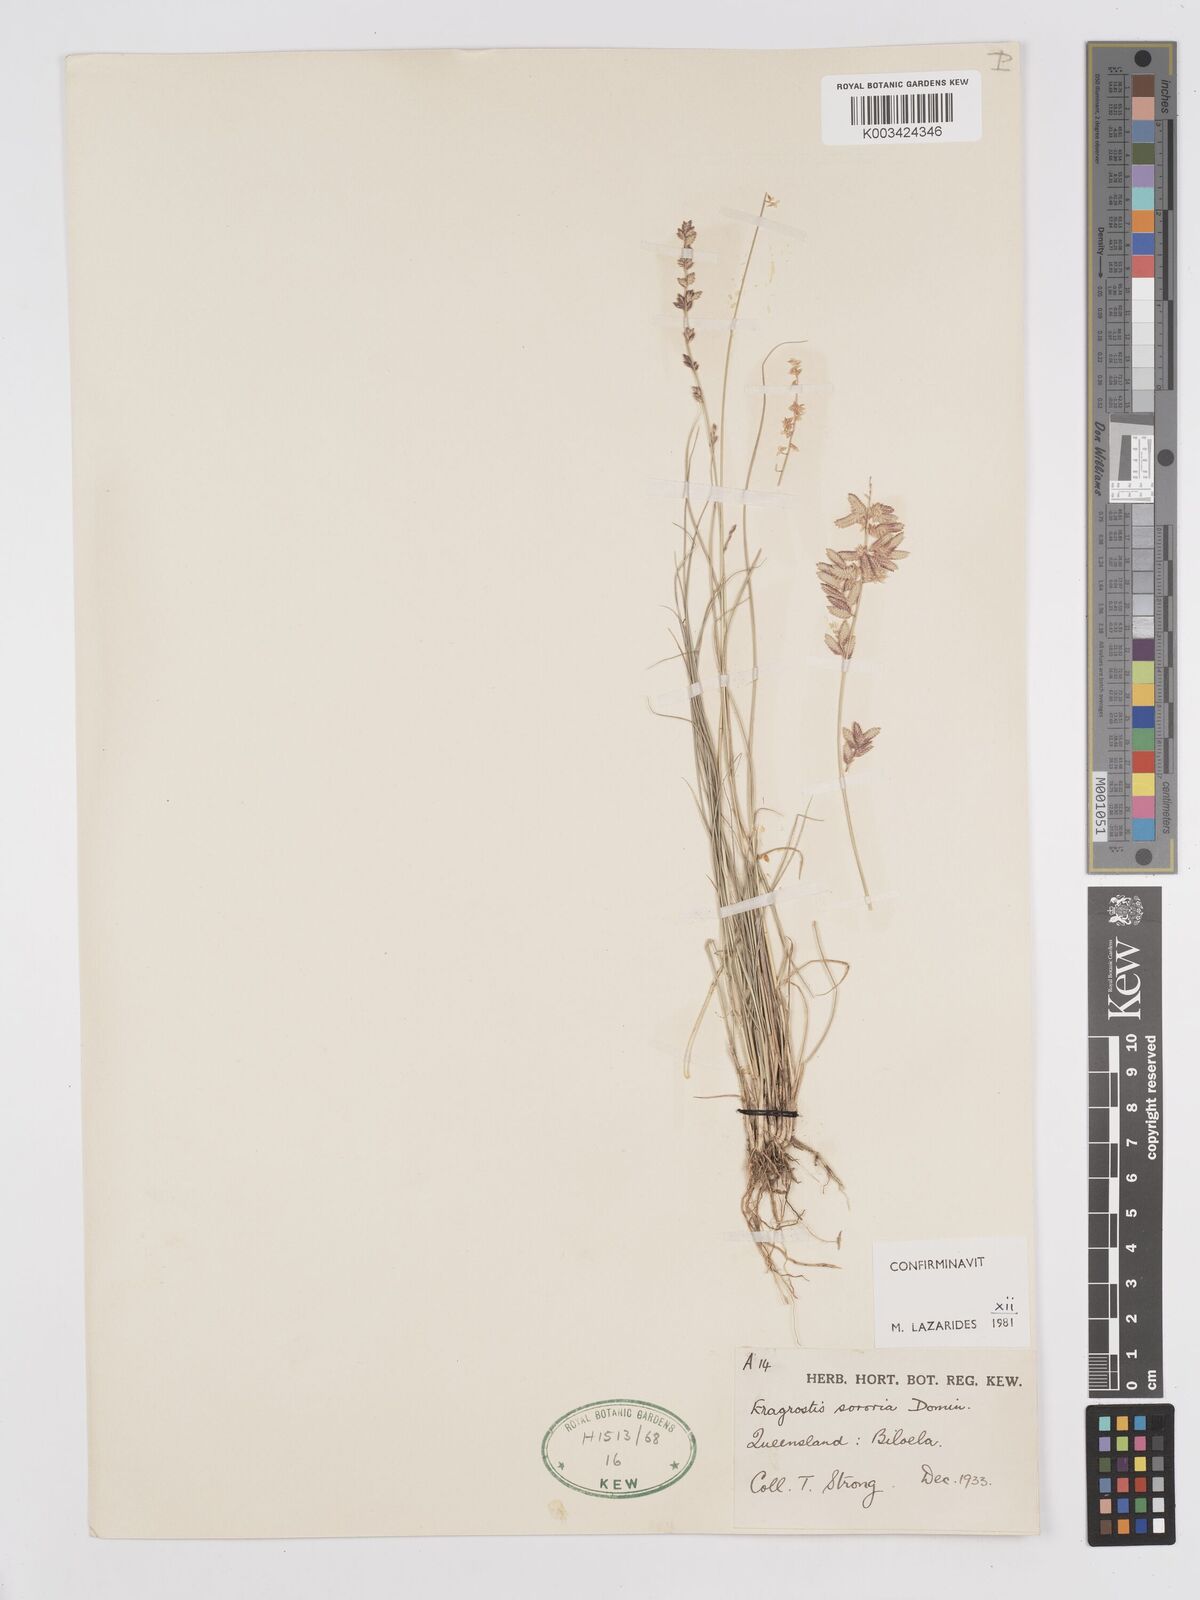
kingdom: Plantae
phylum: Tracheophyta
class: Liliopsida
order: Poales
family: Poaceae
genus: Eragrostis
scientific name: Eragrostis sororia
